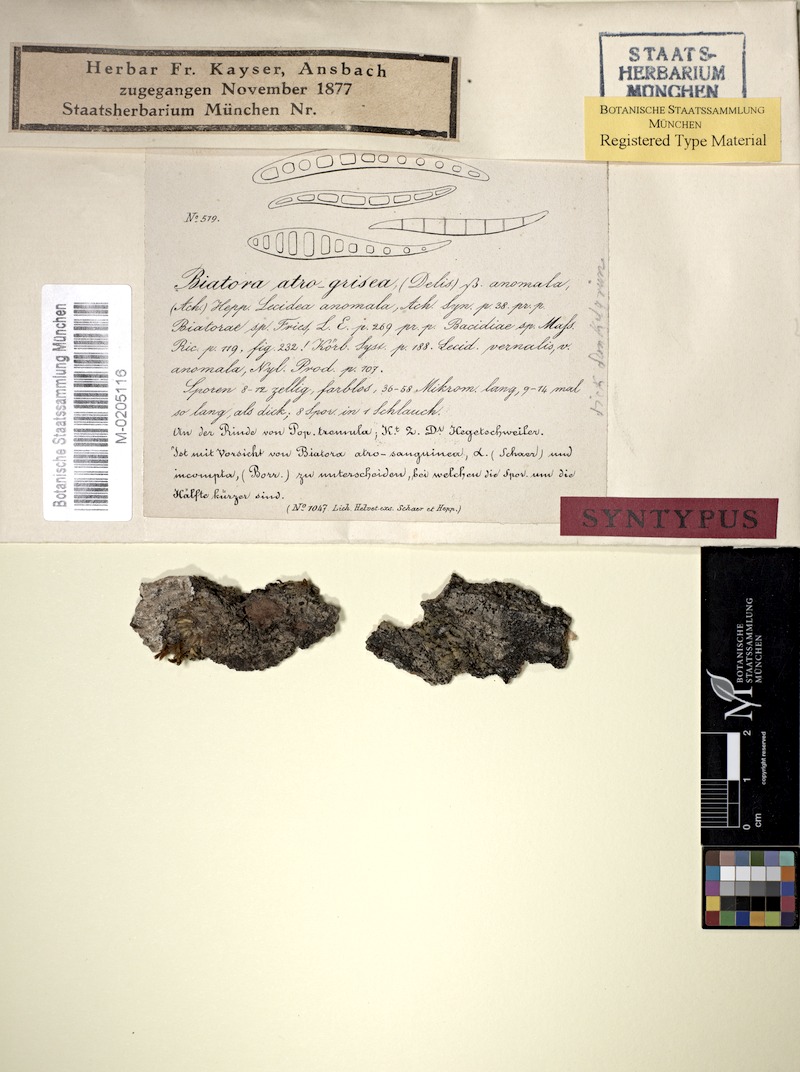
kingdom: Fungi
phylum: Ascomycota
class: Lecanoromycetes
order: Lecanorales
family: Ramalinaceae
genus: Bacidia
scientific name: Bacidia biatorina
